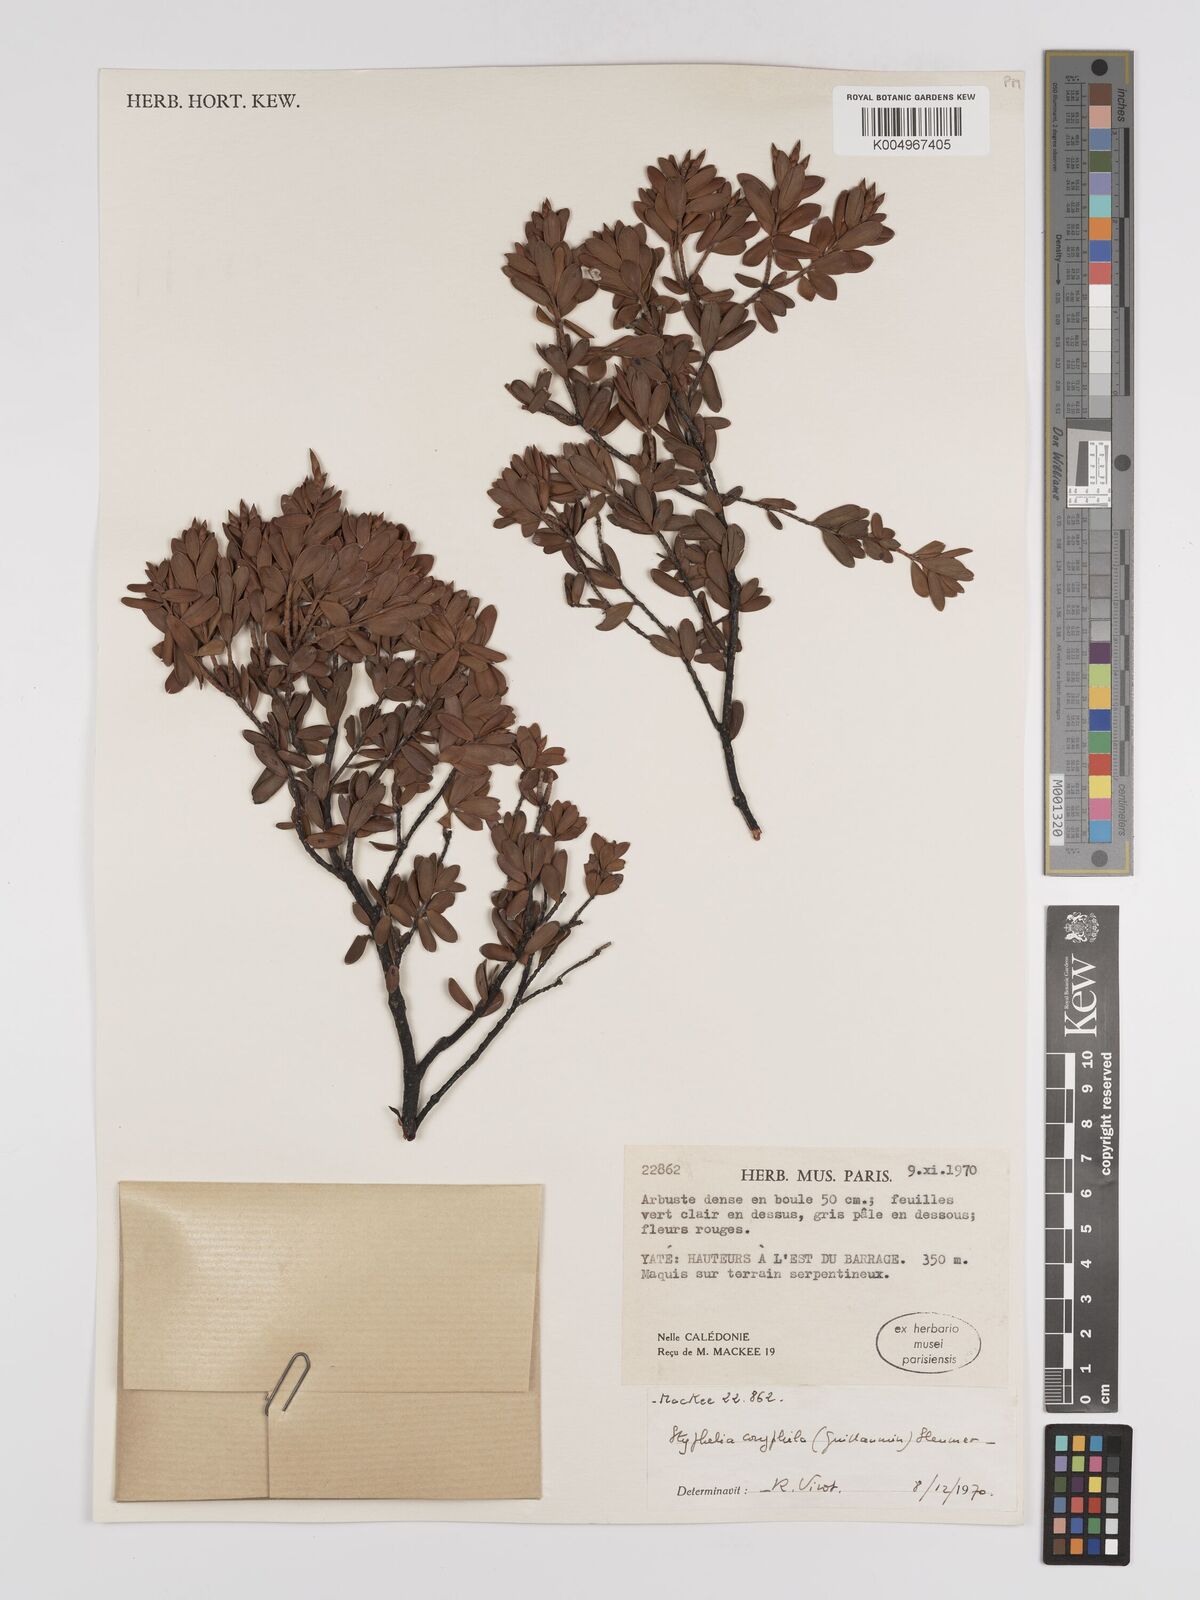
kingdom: Plantae
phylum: Tracheophyta
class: Magnoliopsida
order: Ericales
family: Ericaceae
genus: Cyathopsis
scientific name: Cyathopsis albicans
